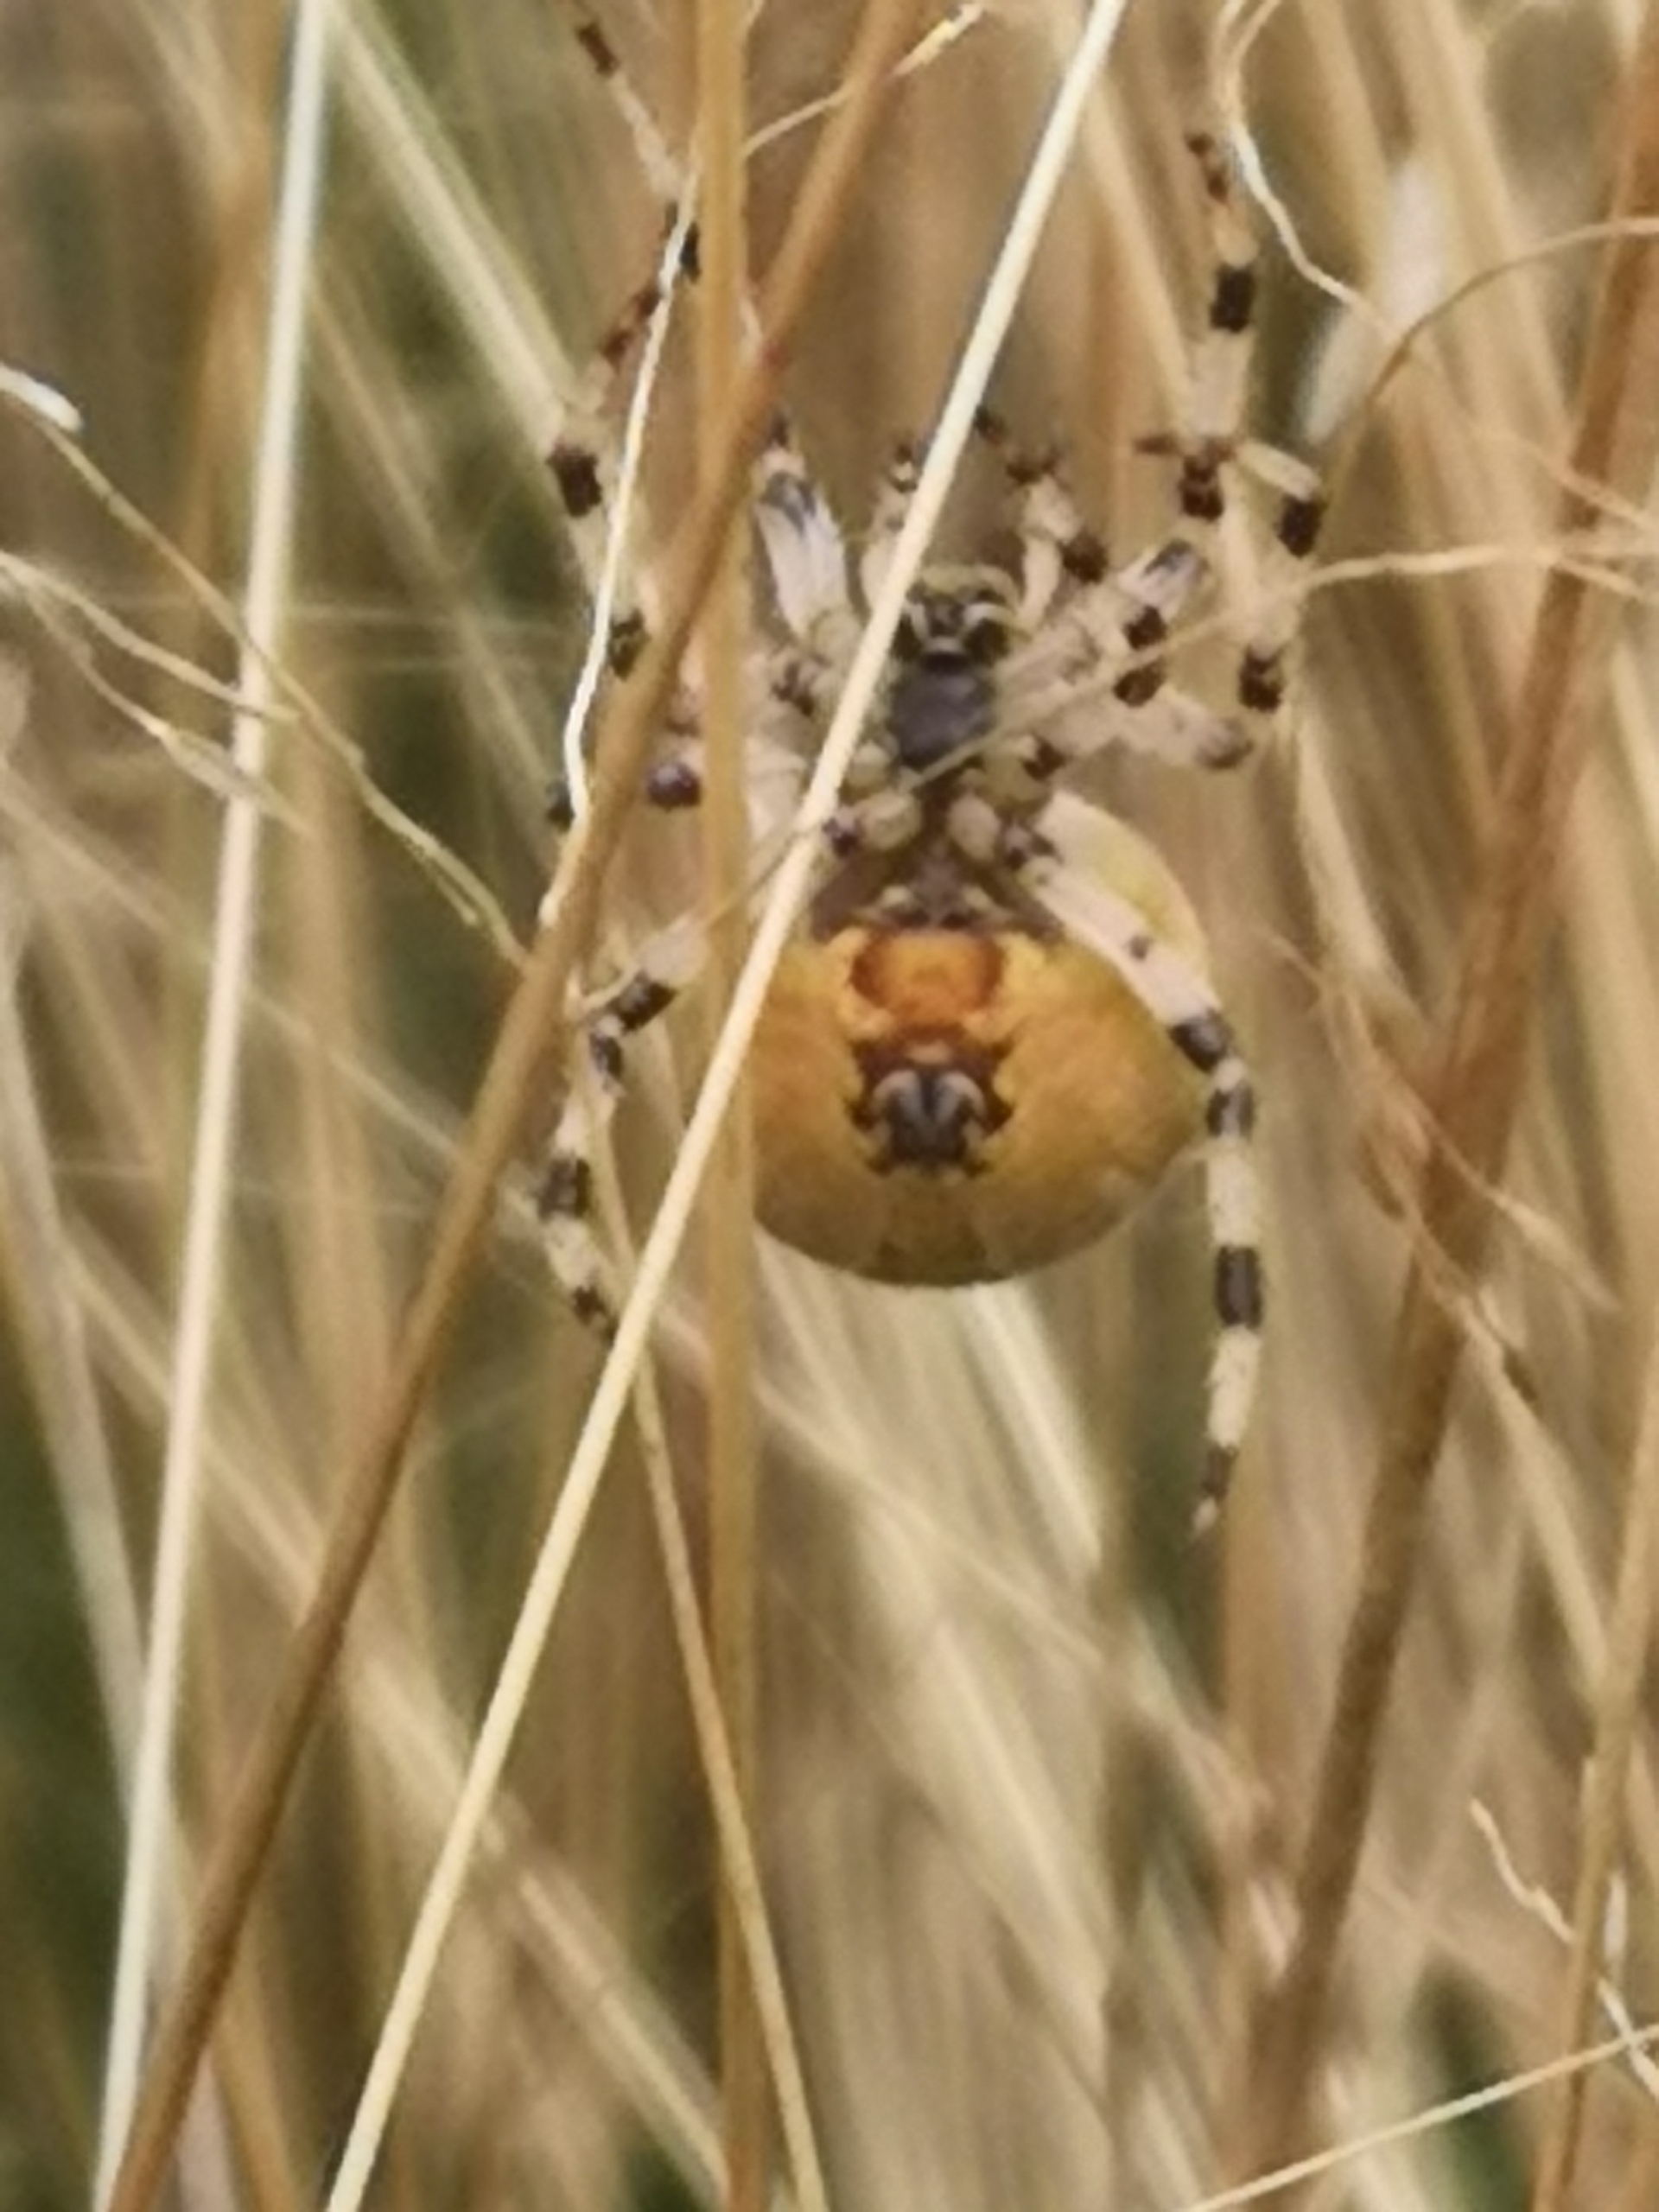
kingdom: Animalia
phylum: Arthropoda
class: Arachnida
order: Araneae
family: Araneidae
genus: Araneus
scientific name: Araneus quadratus
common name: Kvadratedderkop
